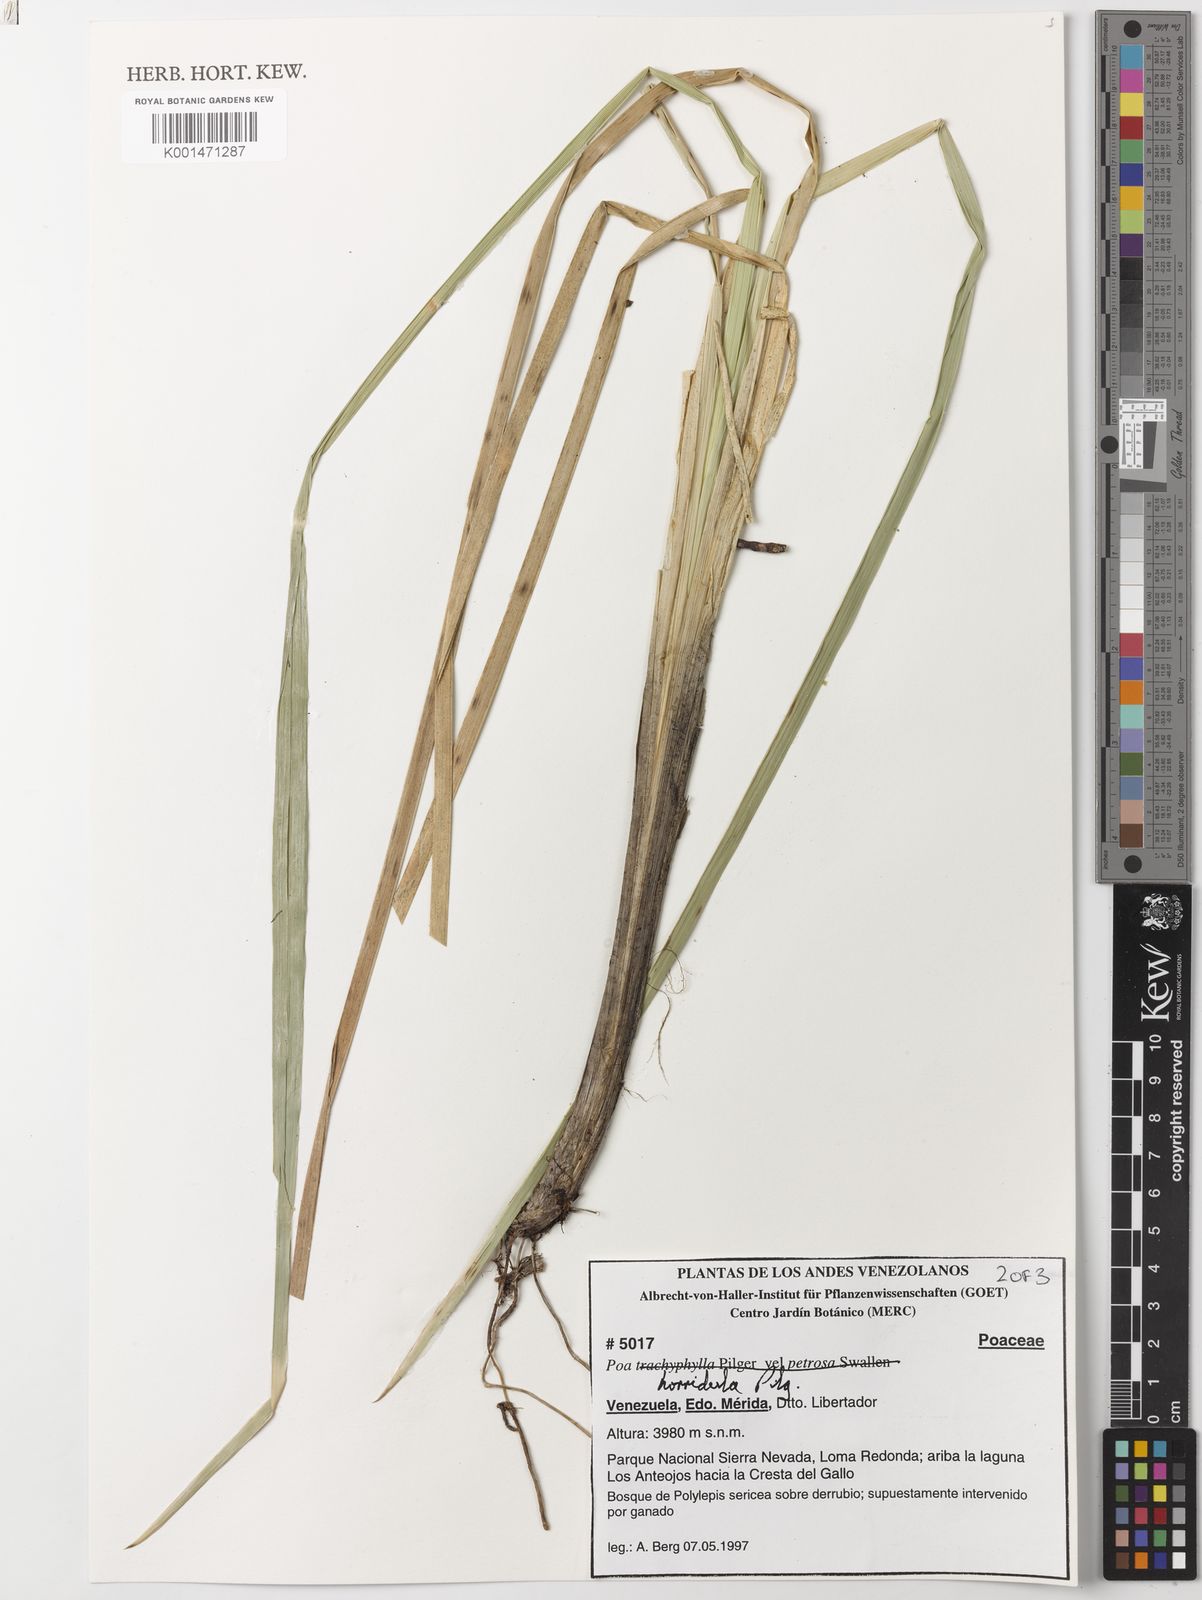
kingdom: Plantae
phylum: Tracheophyta
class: Liliopsida
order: Poales
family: Poaceae
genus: Poa
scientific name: Poa horridula
